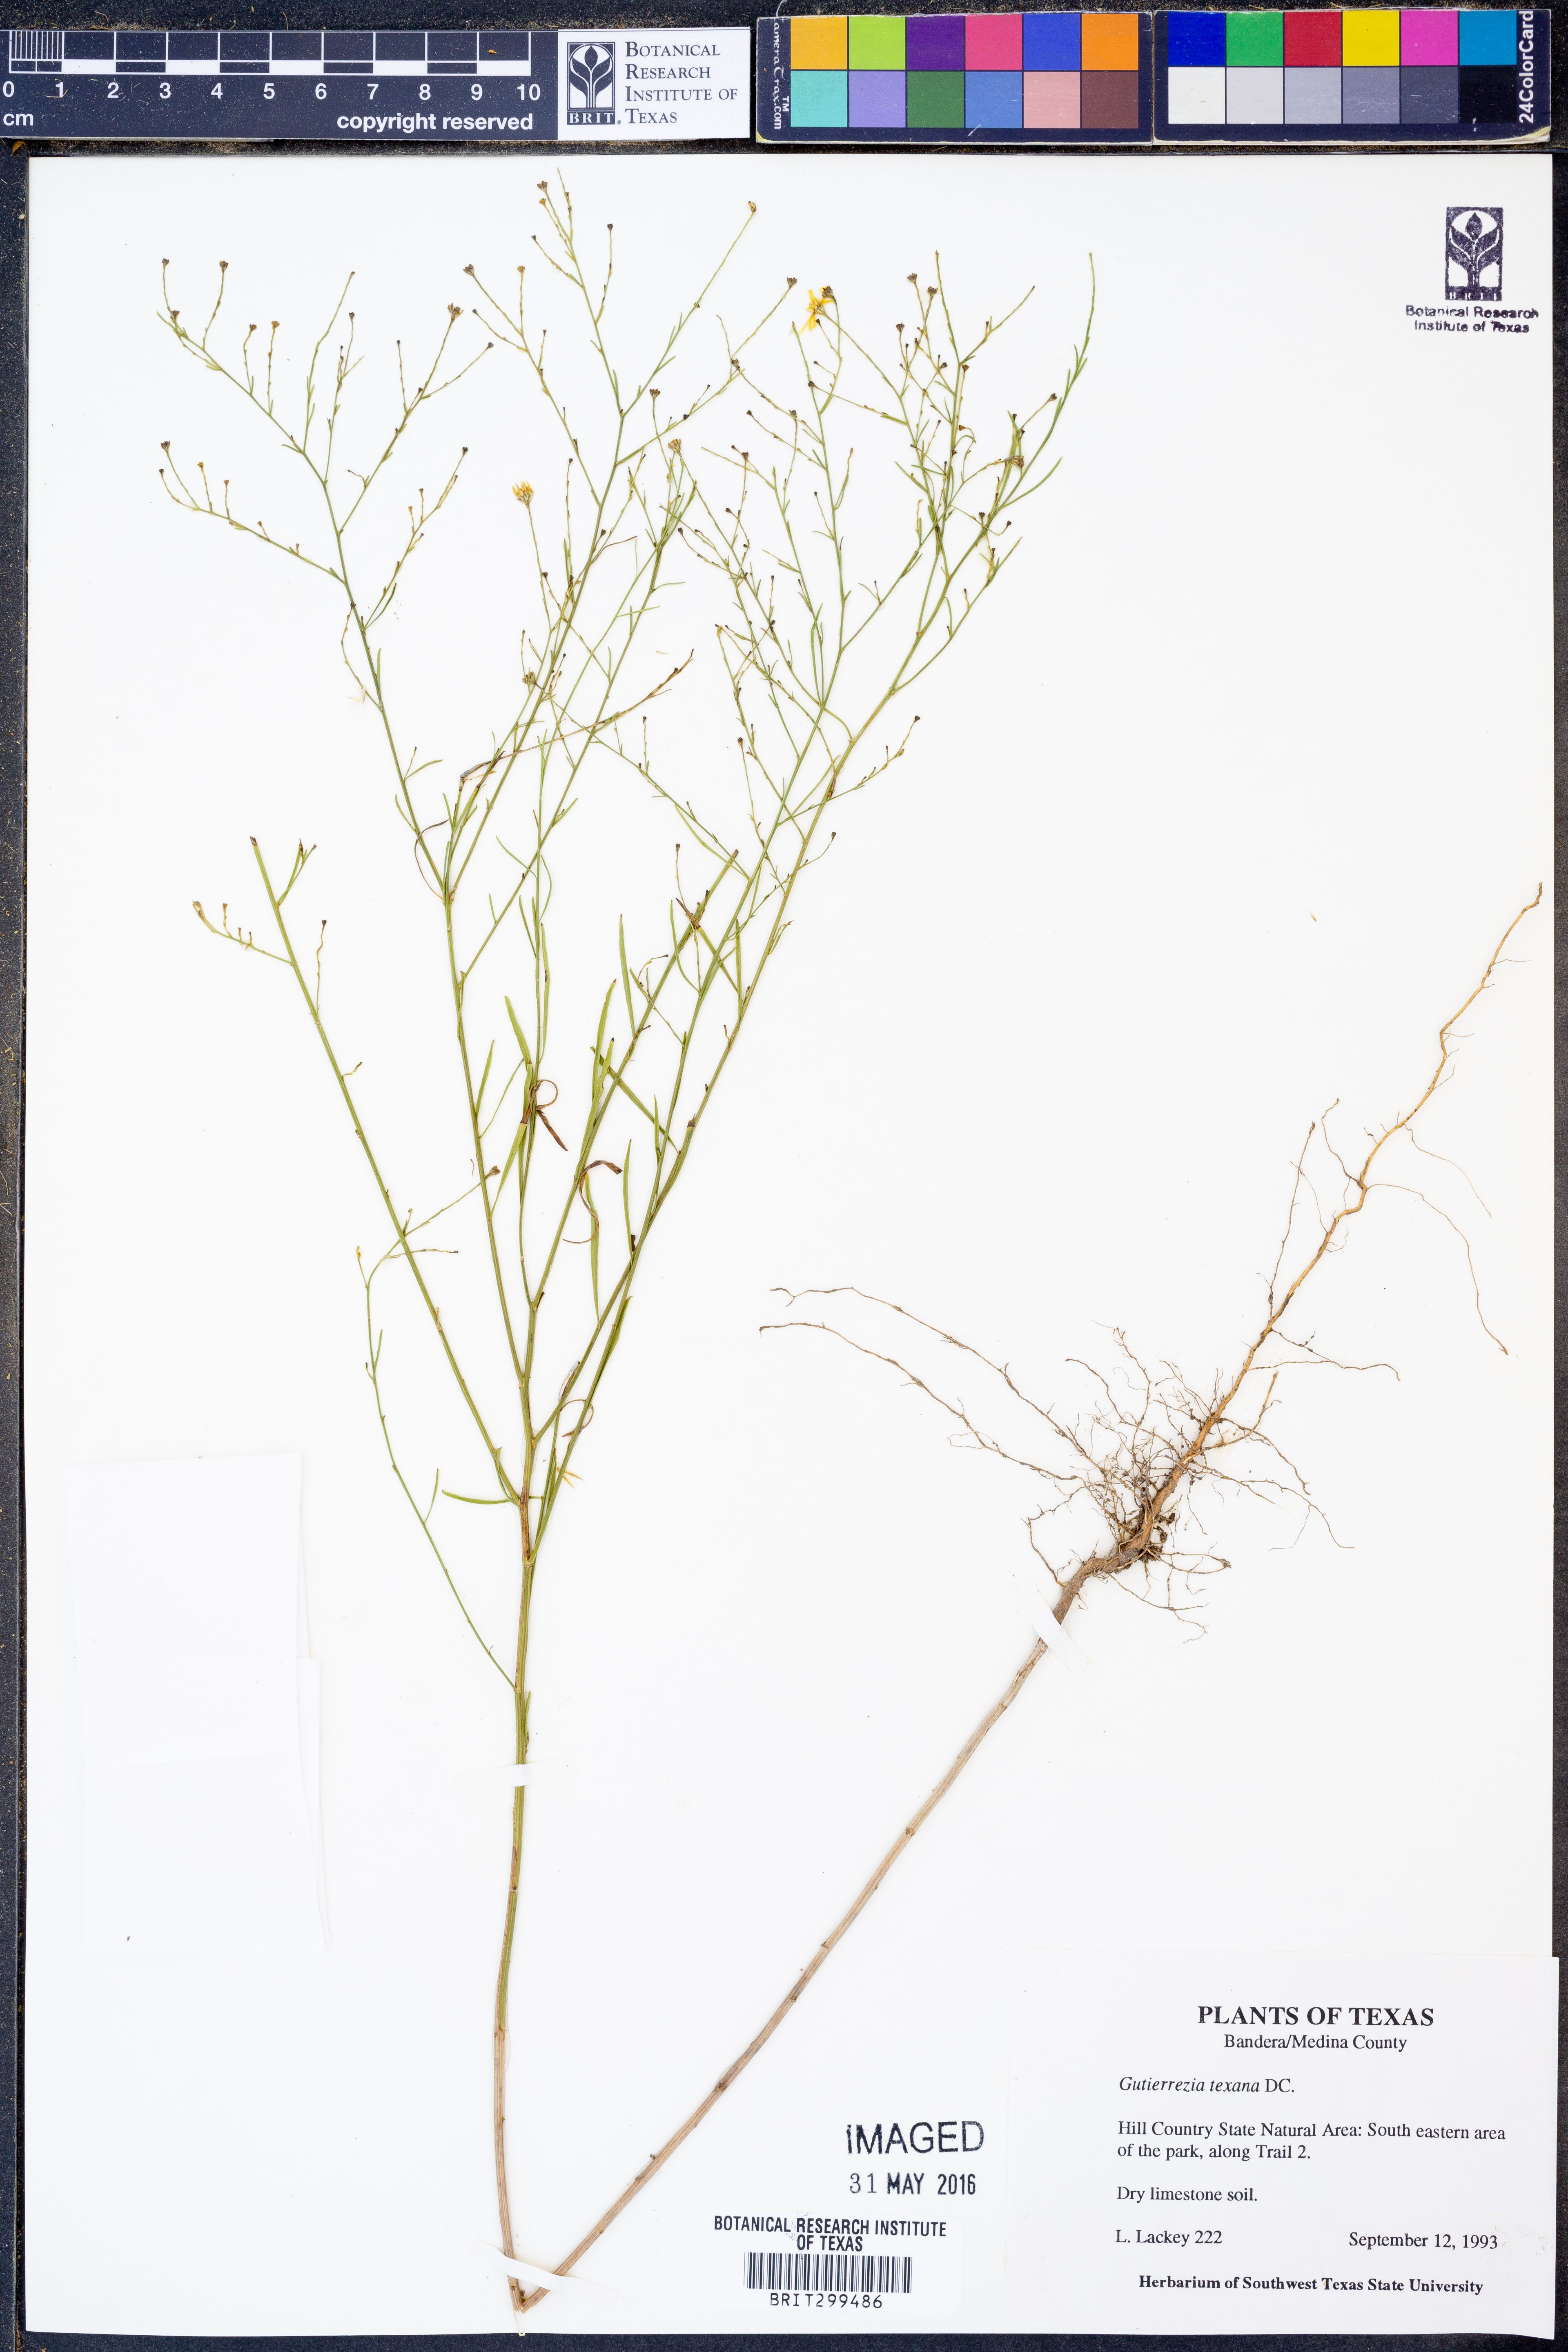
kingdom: Plantae
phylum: Tracheophyta
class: Magnoliopsida
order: Asterales
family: Asteraceae
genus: Gutierrezia
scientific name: Gutierrezia texana
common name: Texas snakeweed
